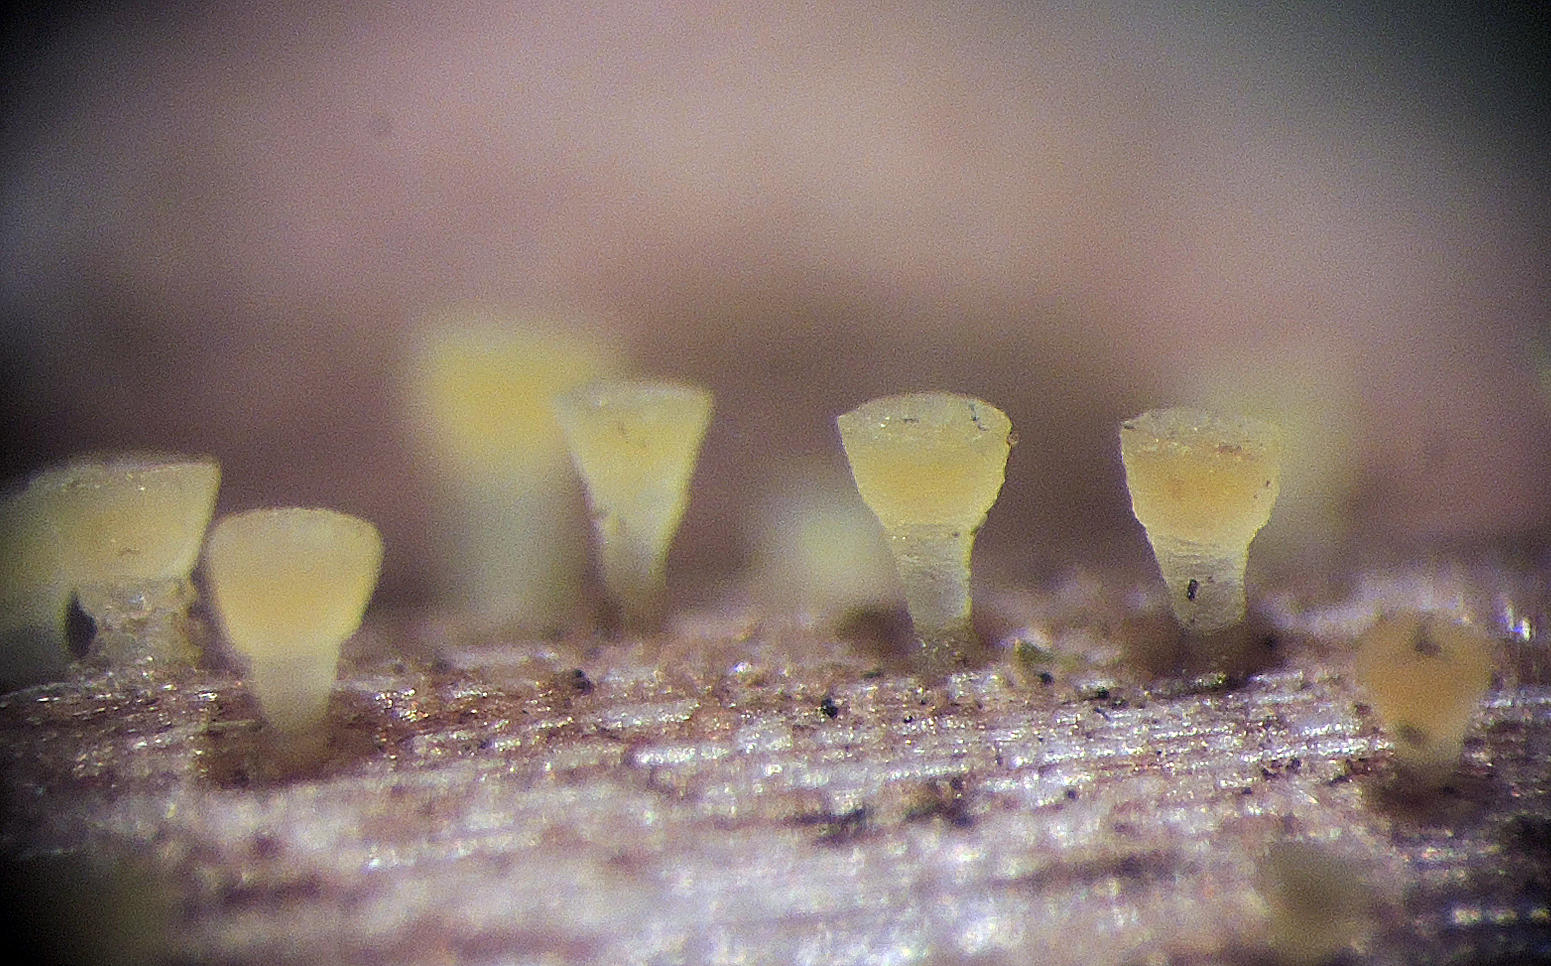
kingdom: Fungi
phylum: Ascomycota
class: Leotiomycetes
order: Helotiales
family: Pezizellaceae
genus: Allophylaria
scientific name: Allophylaria byssacea
